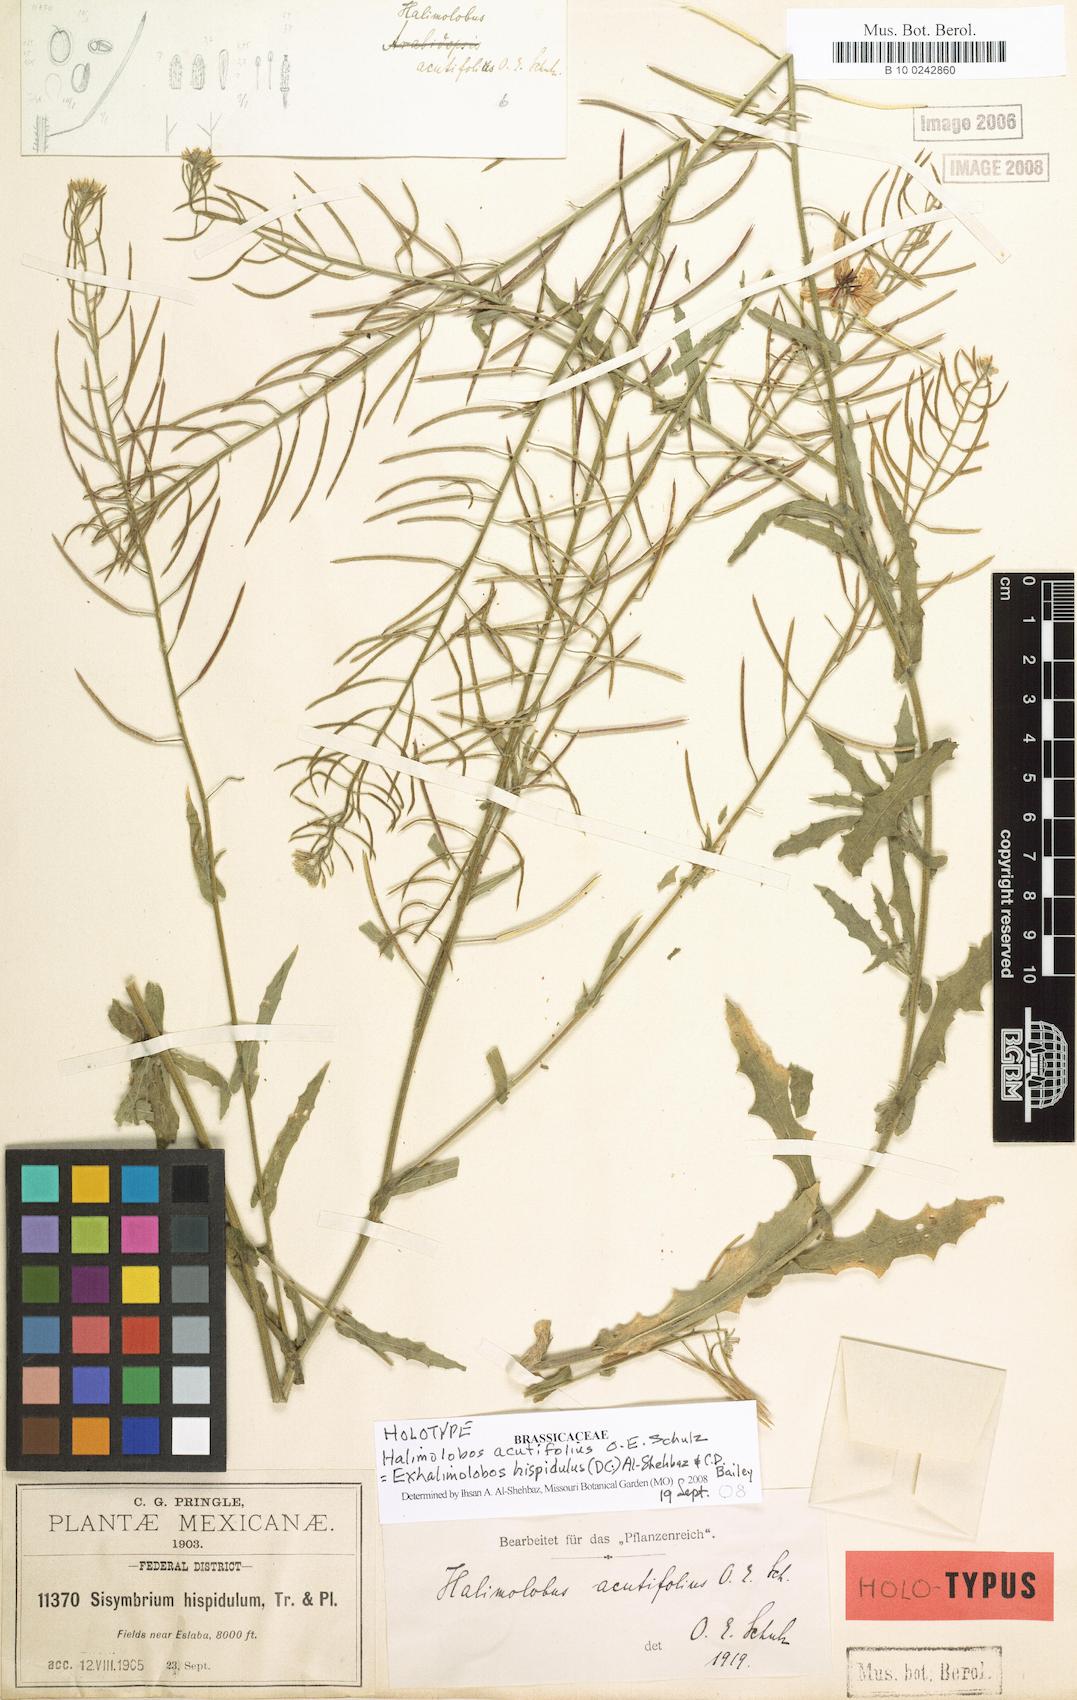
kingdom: Plantae
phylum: Tracheophyta
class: Magnoliopsida
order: Brassicales
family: Brassicaceae
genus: Exhalimolobos
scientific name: Exhalimolobos hispidulus
